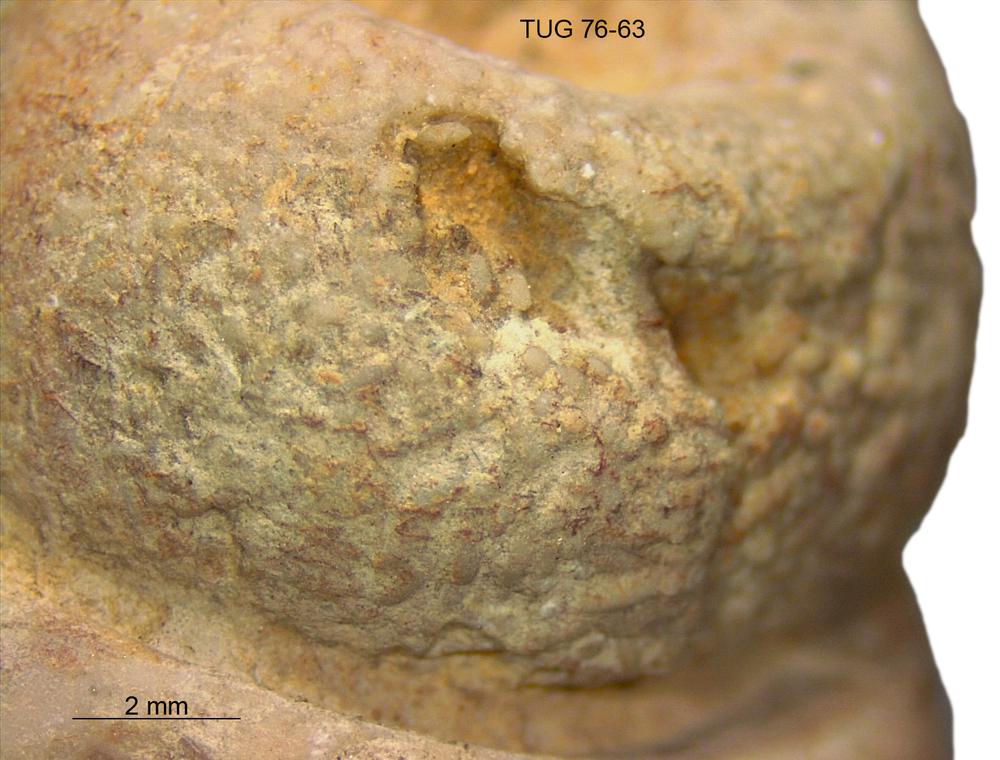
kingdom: Animalia
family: Coprulidae
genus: Coprulus
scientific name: Coprulus
